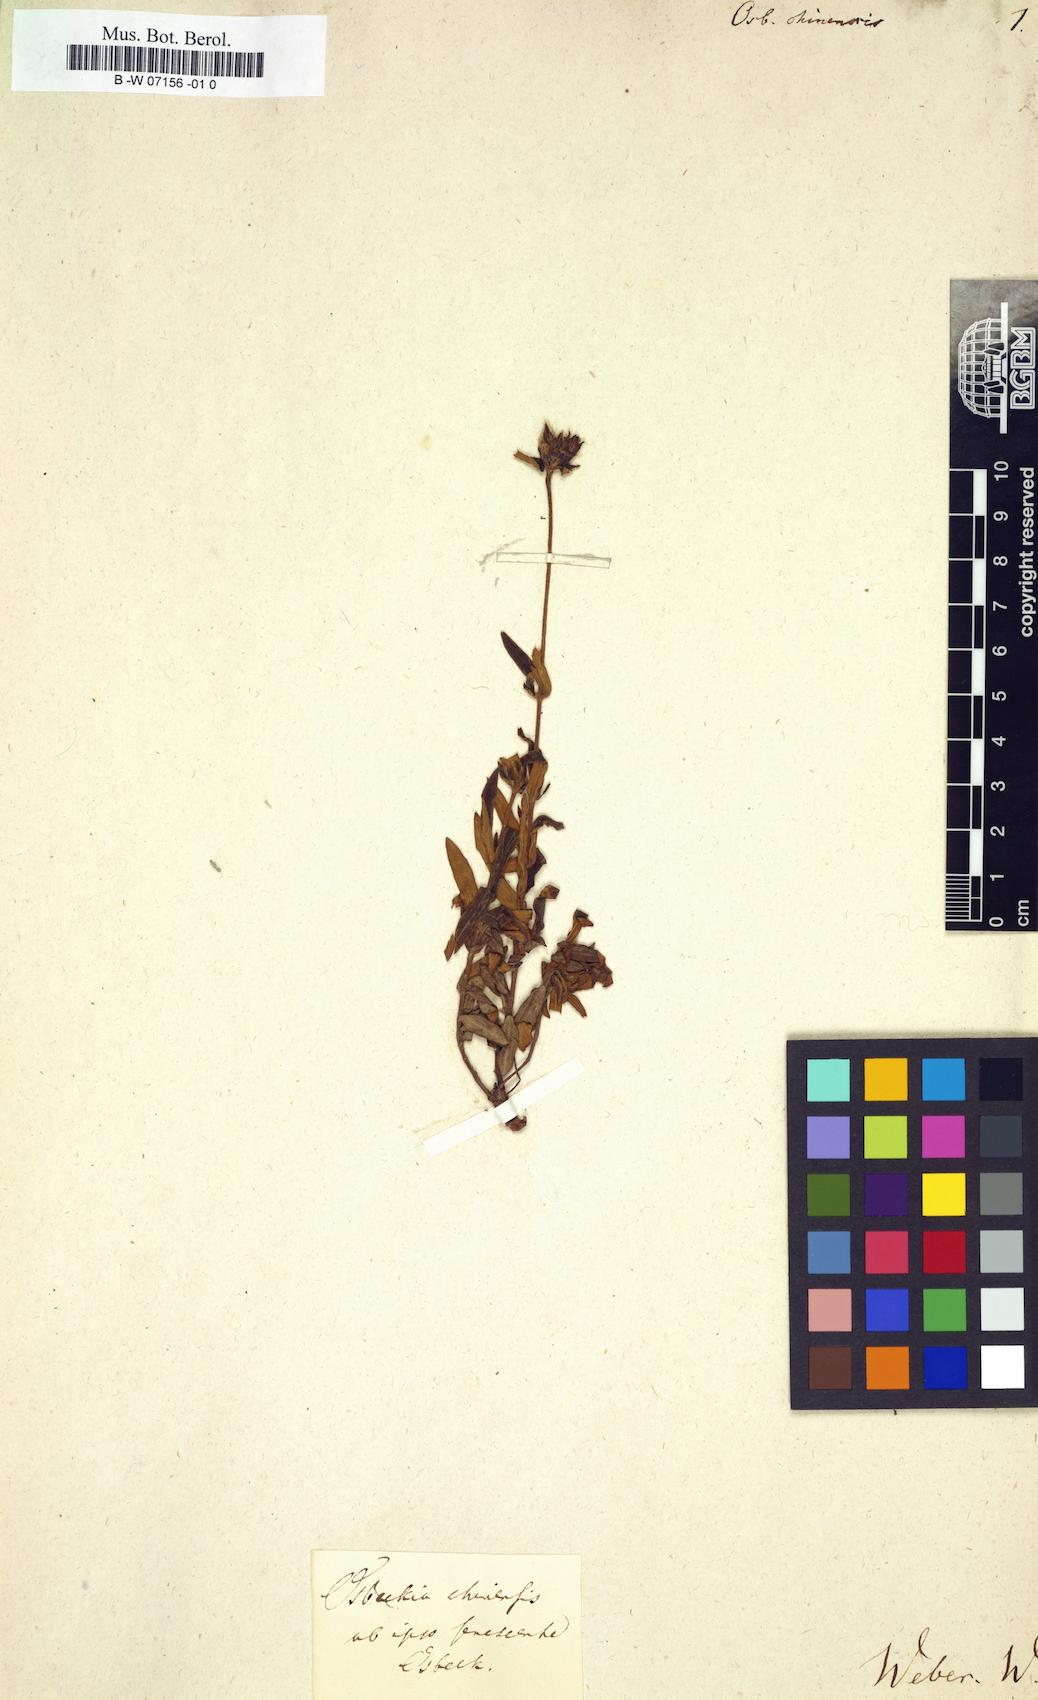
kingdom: Plantae
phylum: Tracheophyta
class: Magnoliopsida
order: Myrtales
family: Melastomataceae
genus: Osbeckia
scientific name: Osbeckia chinensis
